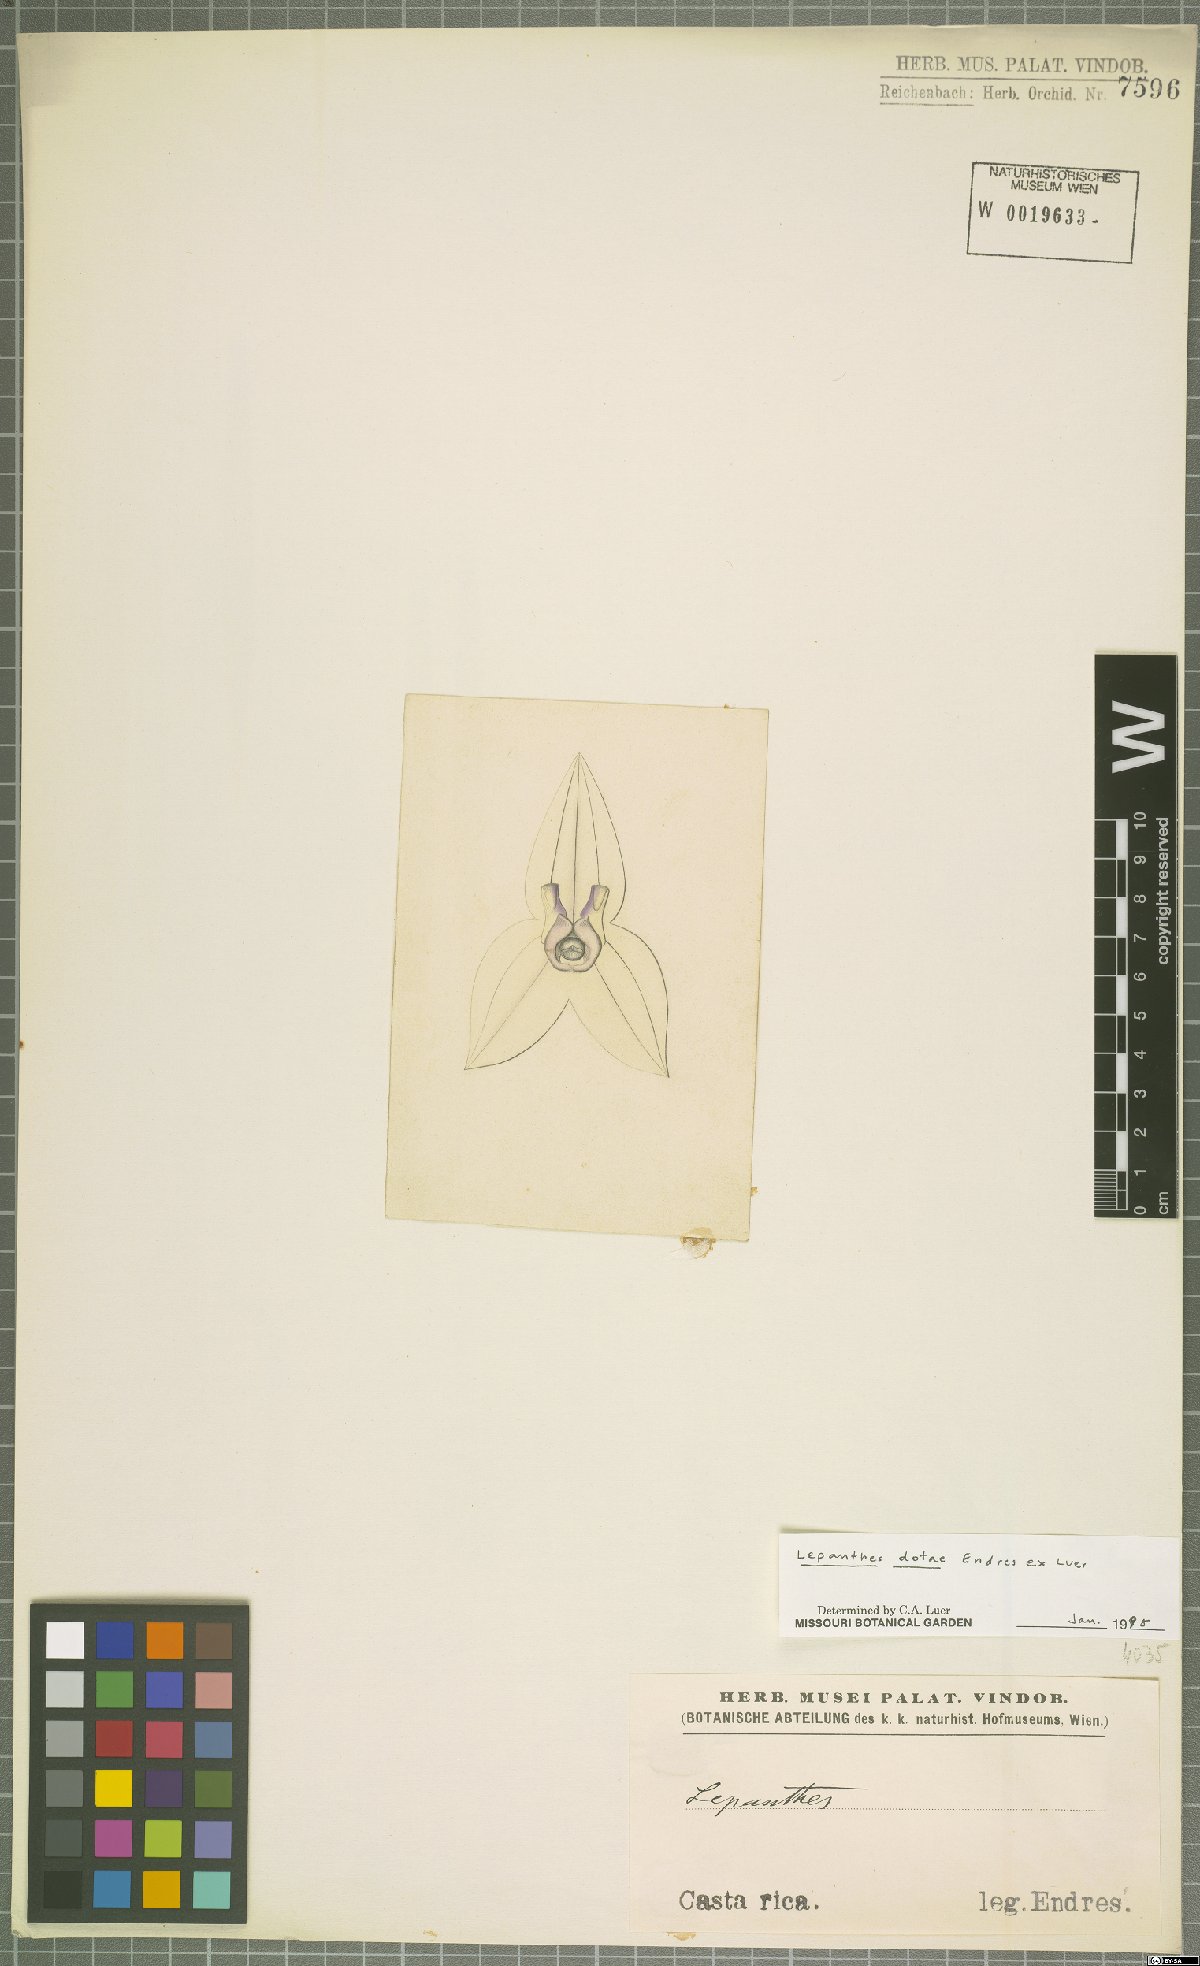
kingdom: Plantae
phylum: Tracheophyta
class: Liliopsida
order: Asparagales
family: Orchidaceae
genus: Lepanthes
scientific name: Lepanthes dotae
